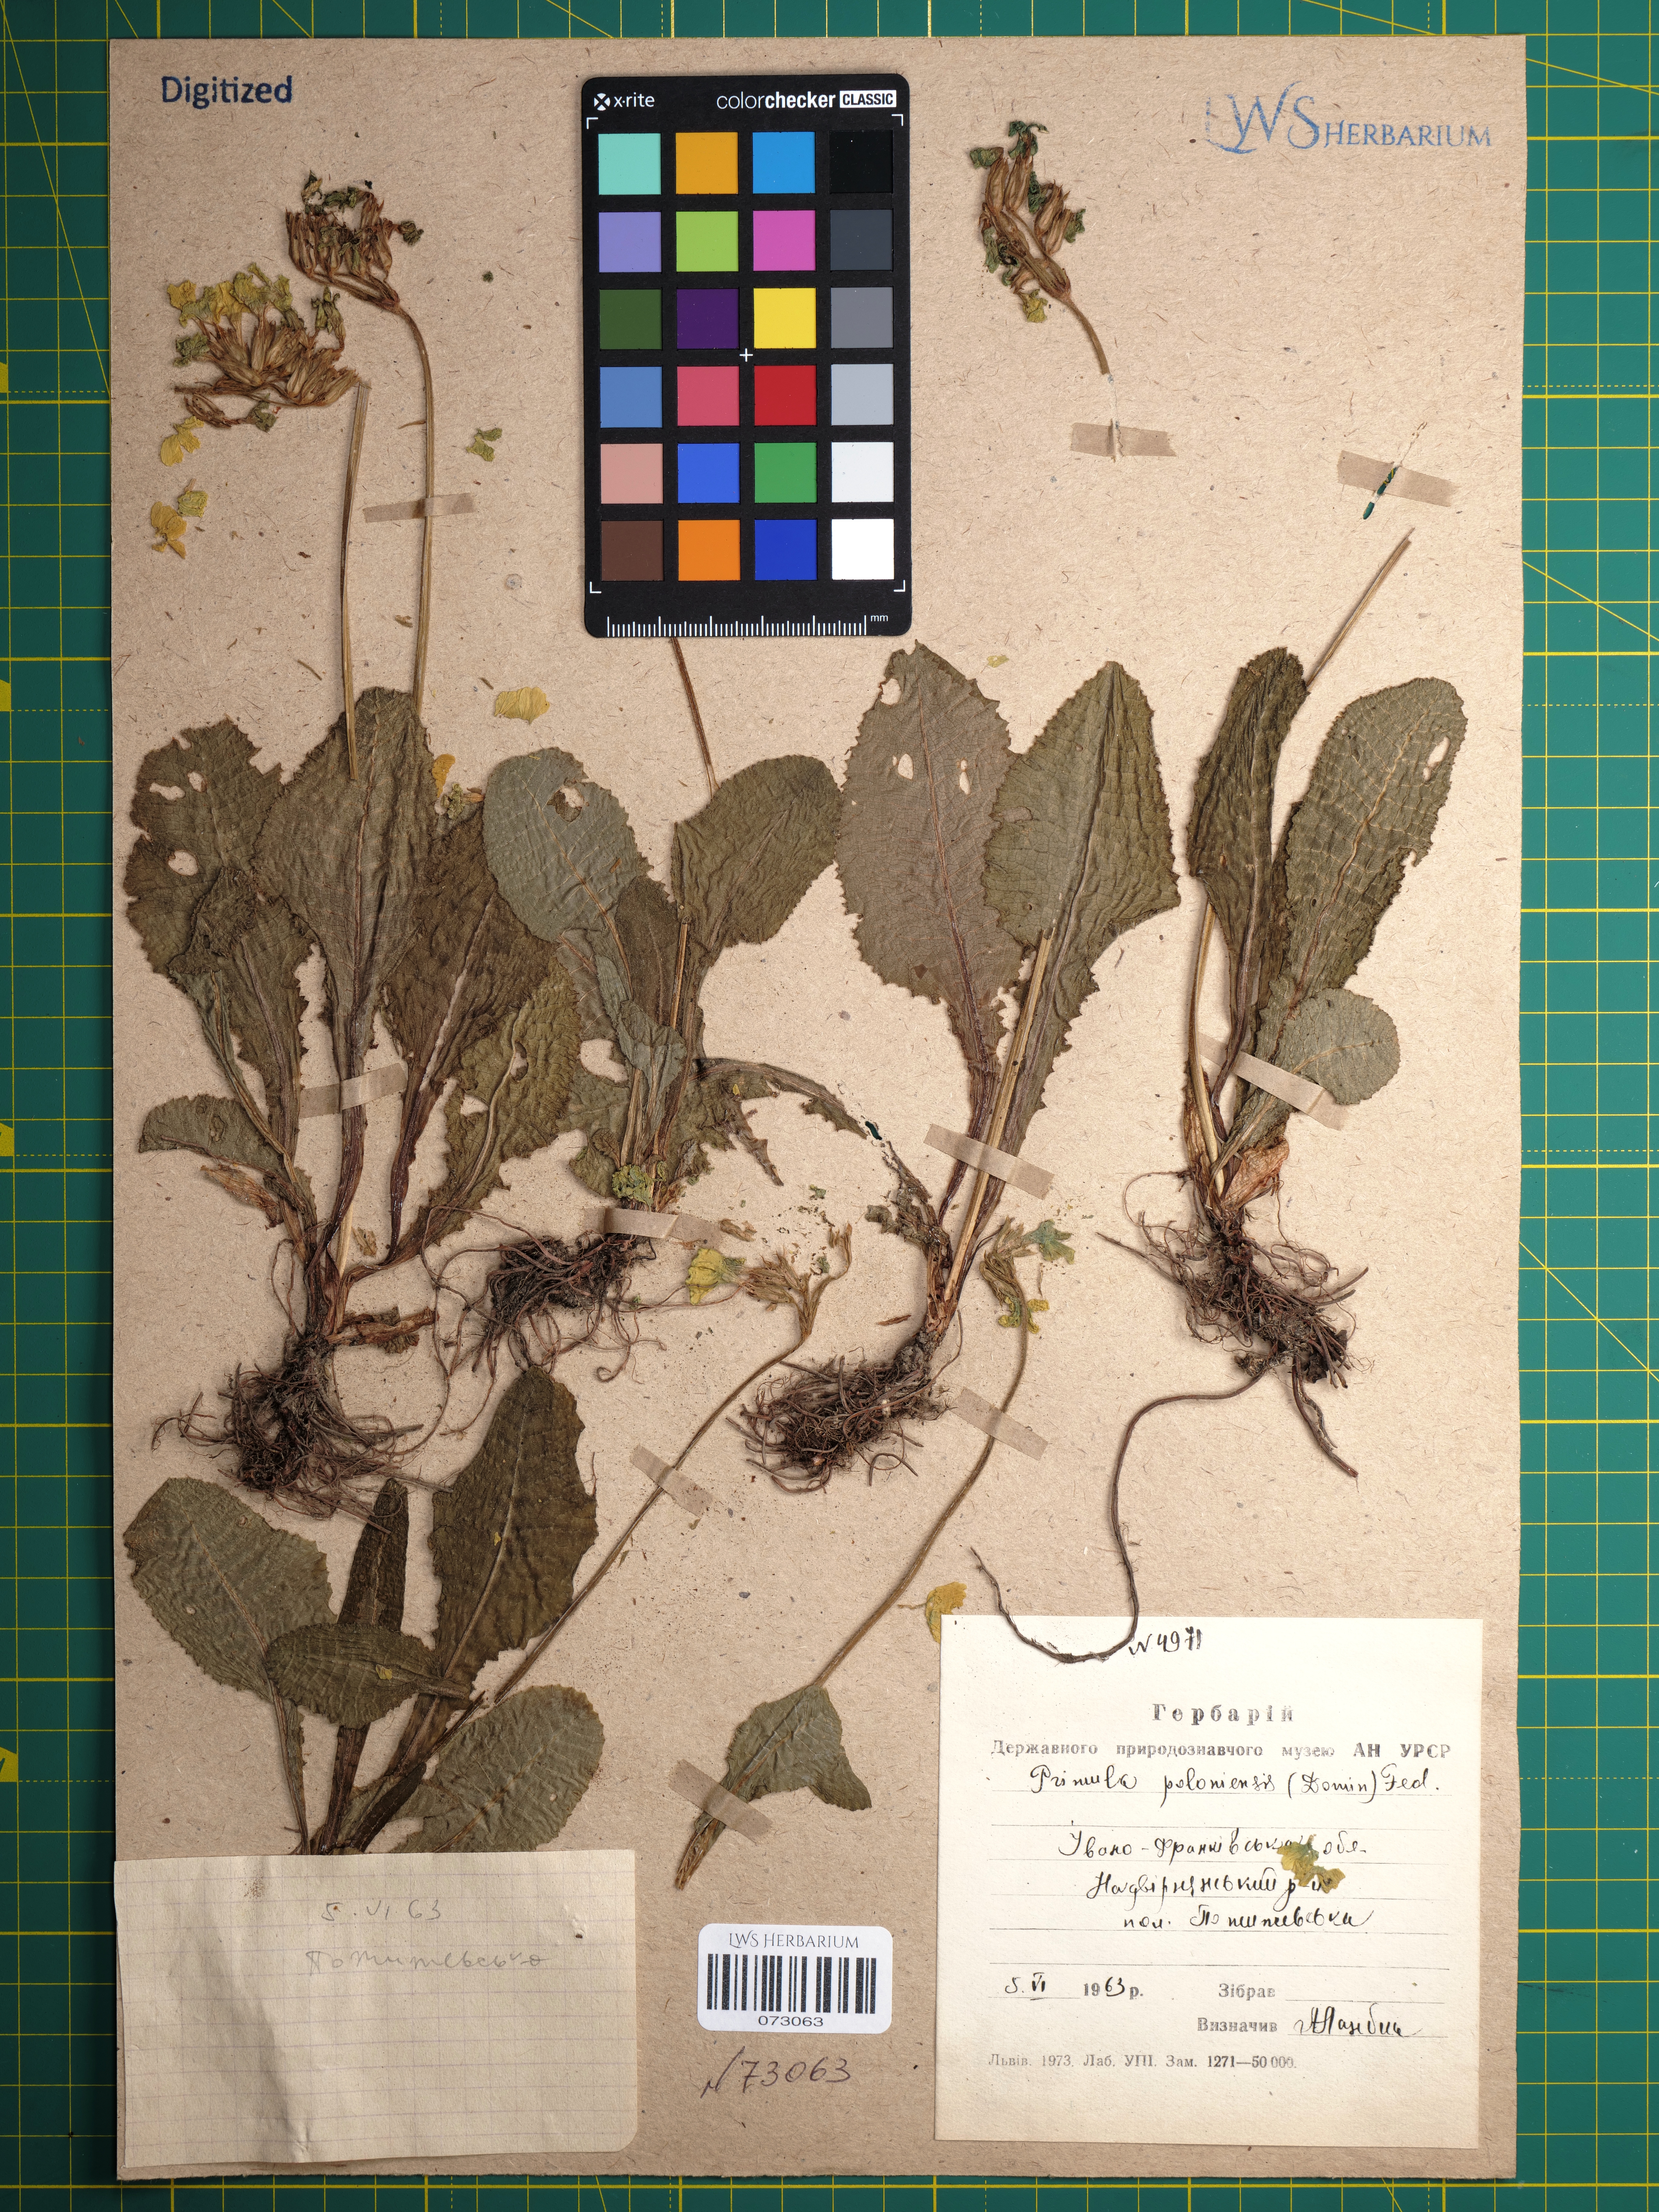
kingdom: Plantae
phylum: Tracheophyta
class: Magnoliopsida
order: Ericales
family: Primulaceae
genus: Primula
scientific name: Primula elatior
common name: Oxlip
